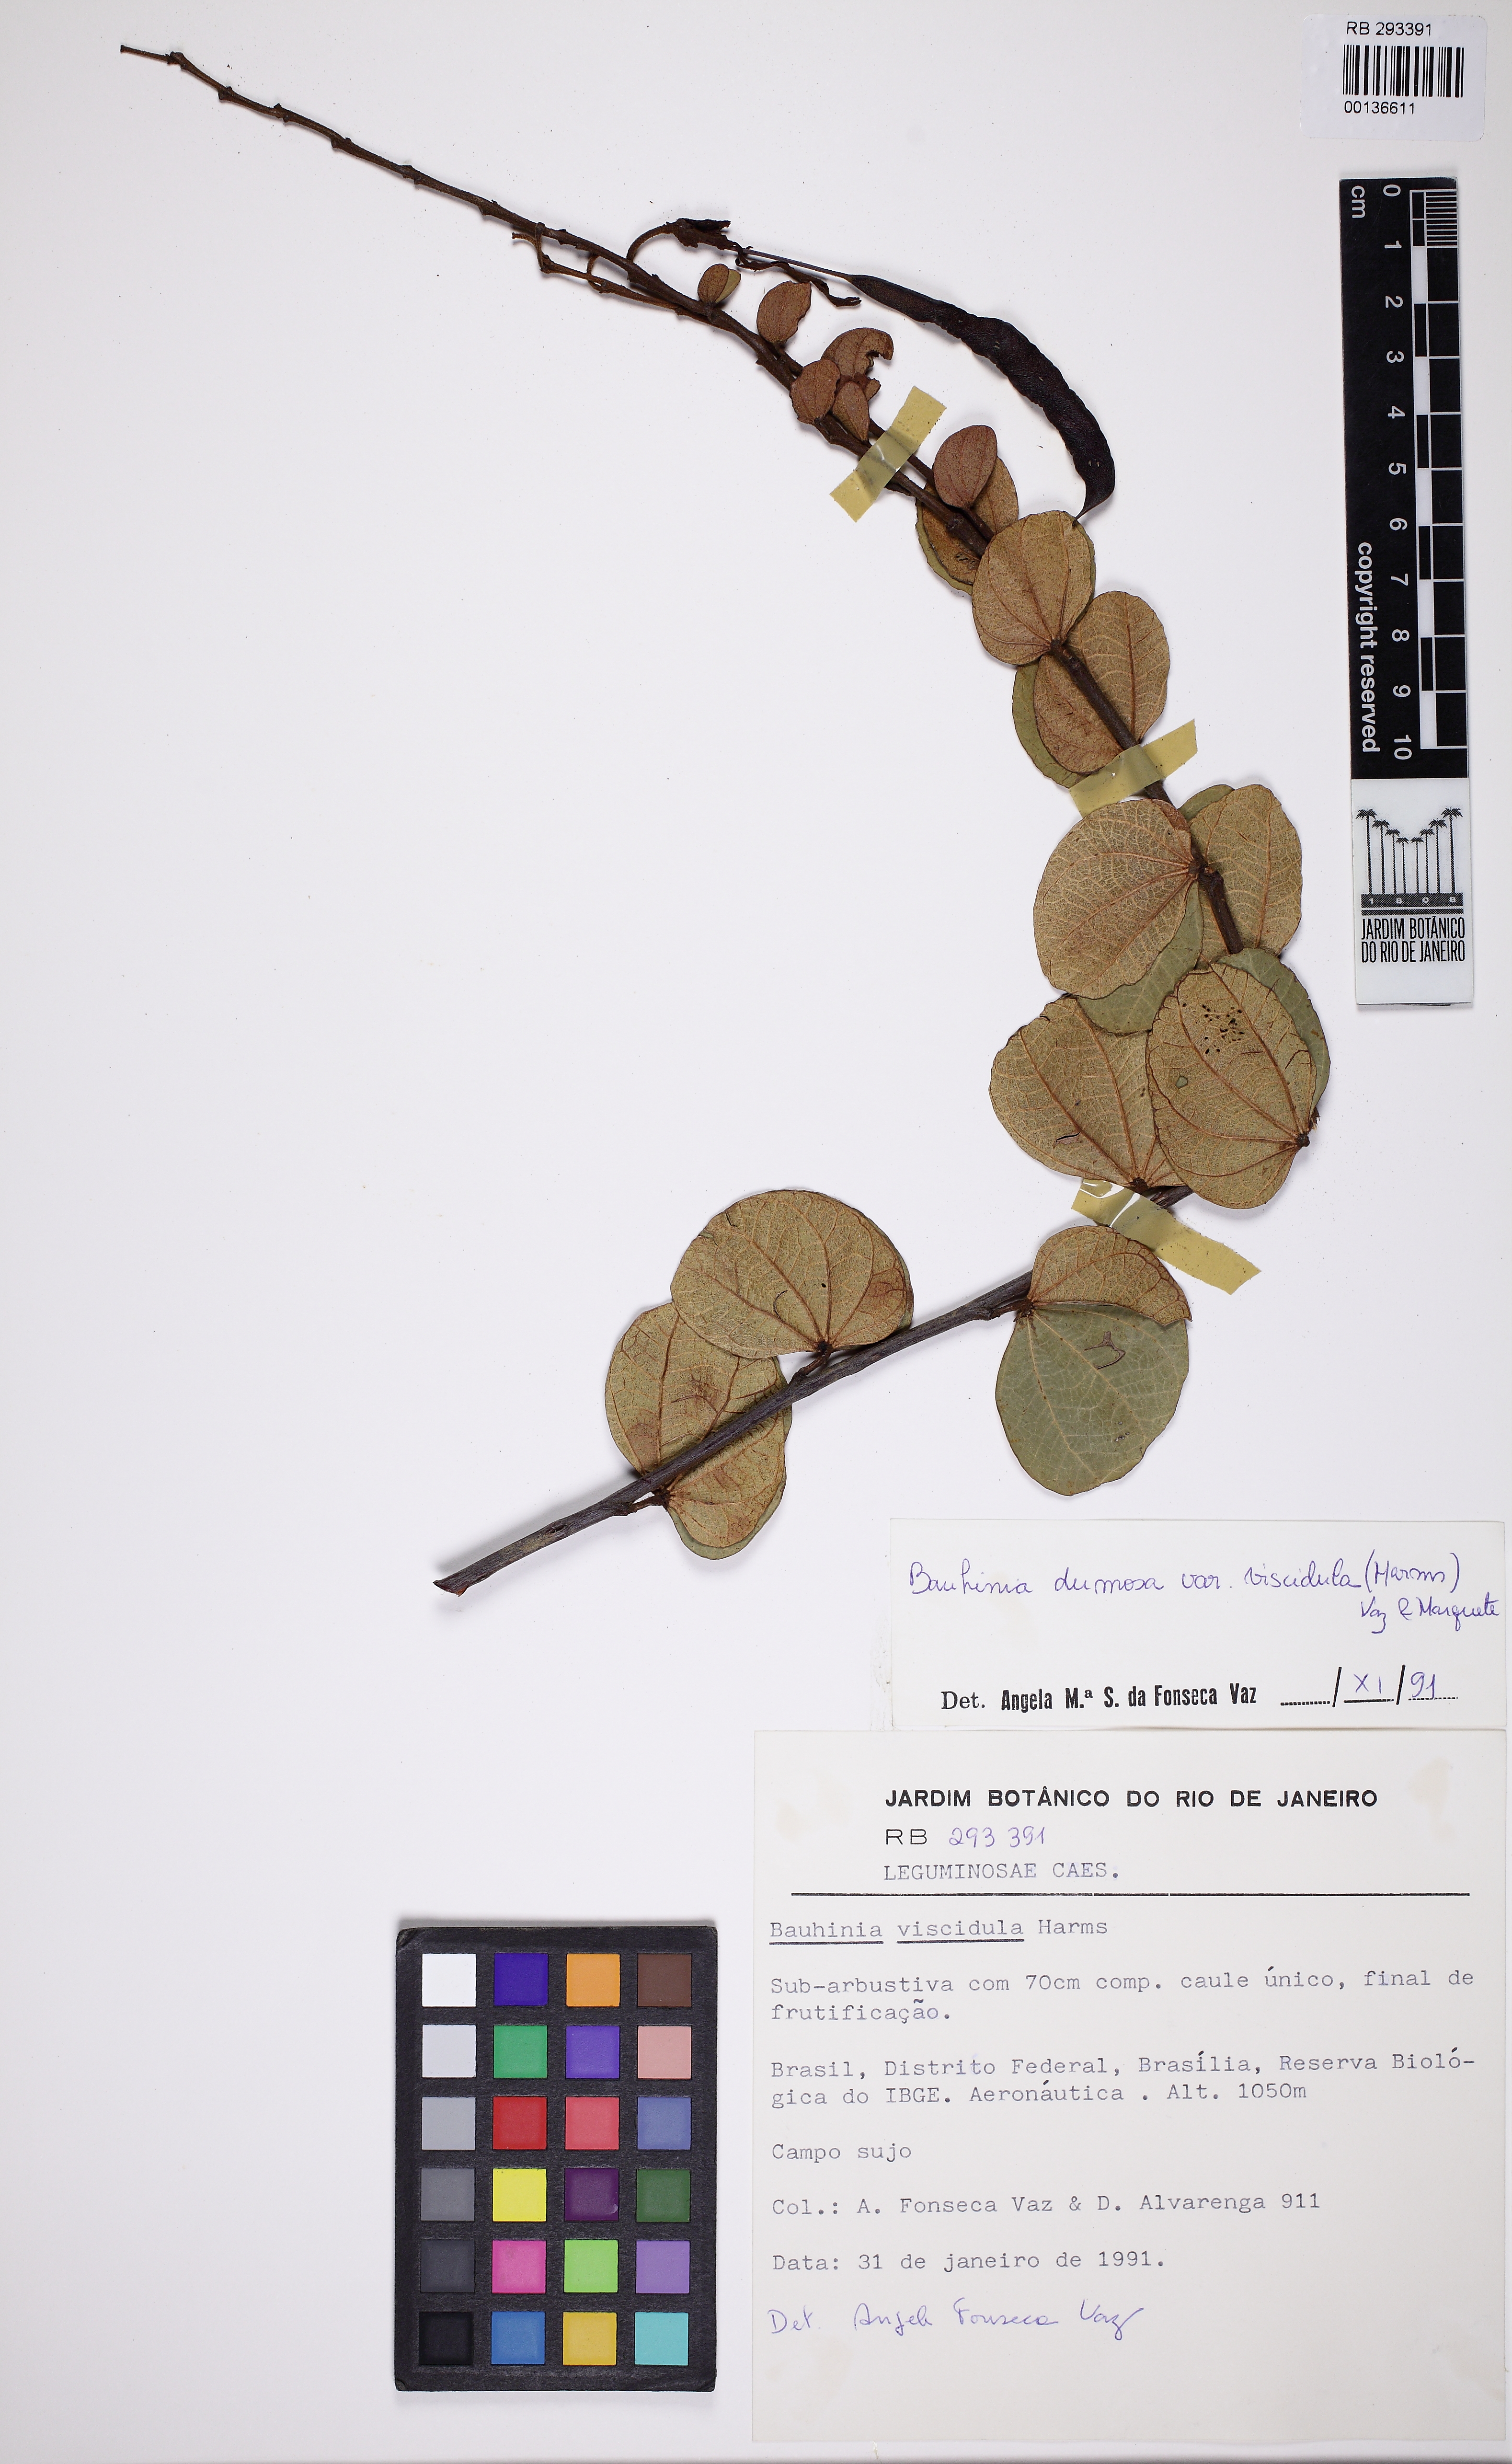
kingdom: Plantae
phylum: Tracheophyta
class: Magnoliopsida
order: Fabales
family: Fabaceae
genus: Bauhinia
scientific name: Bauhinia dumosa
